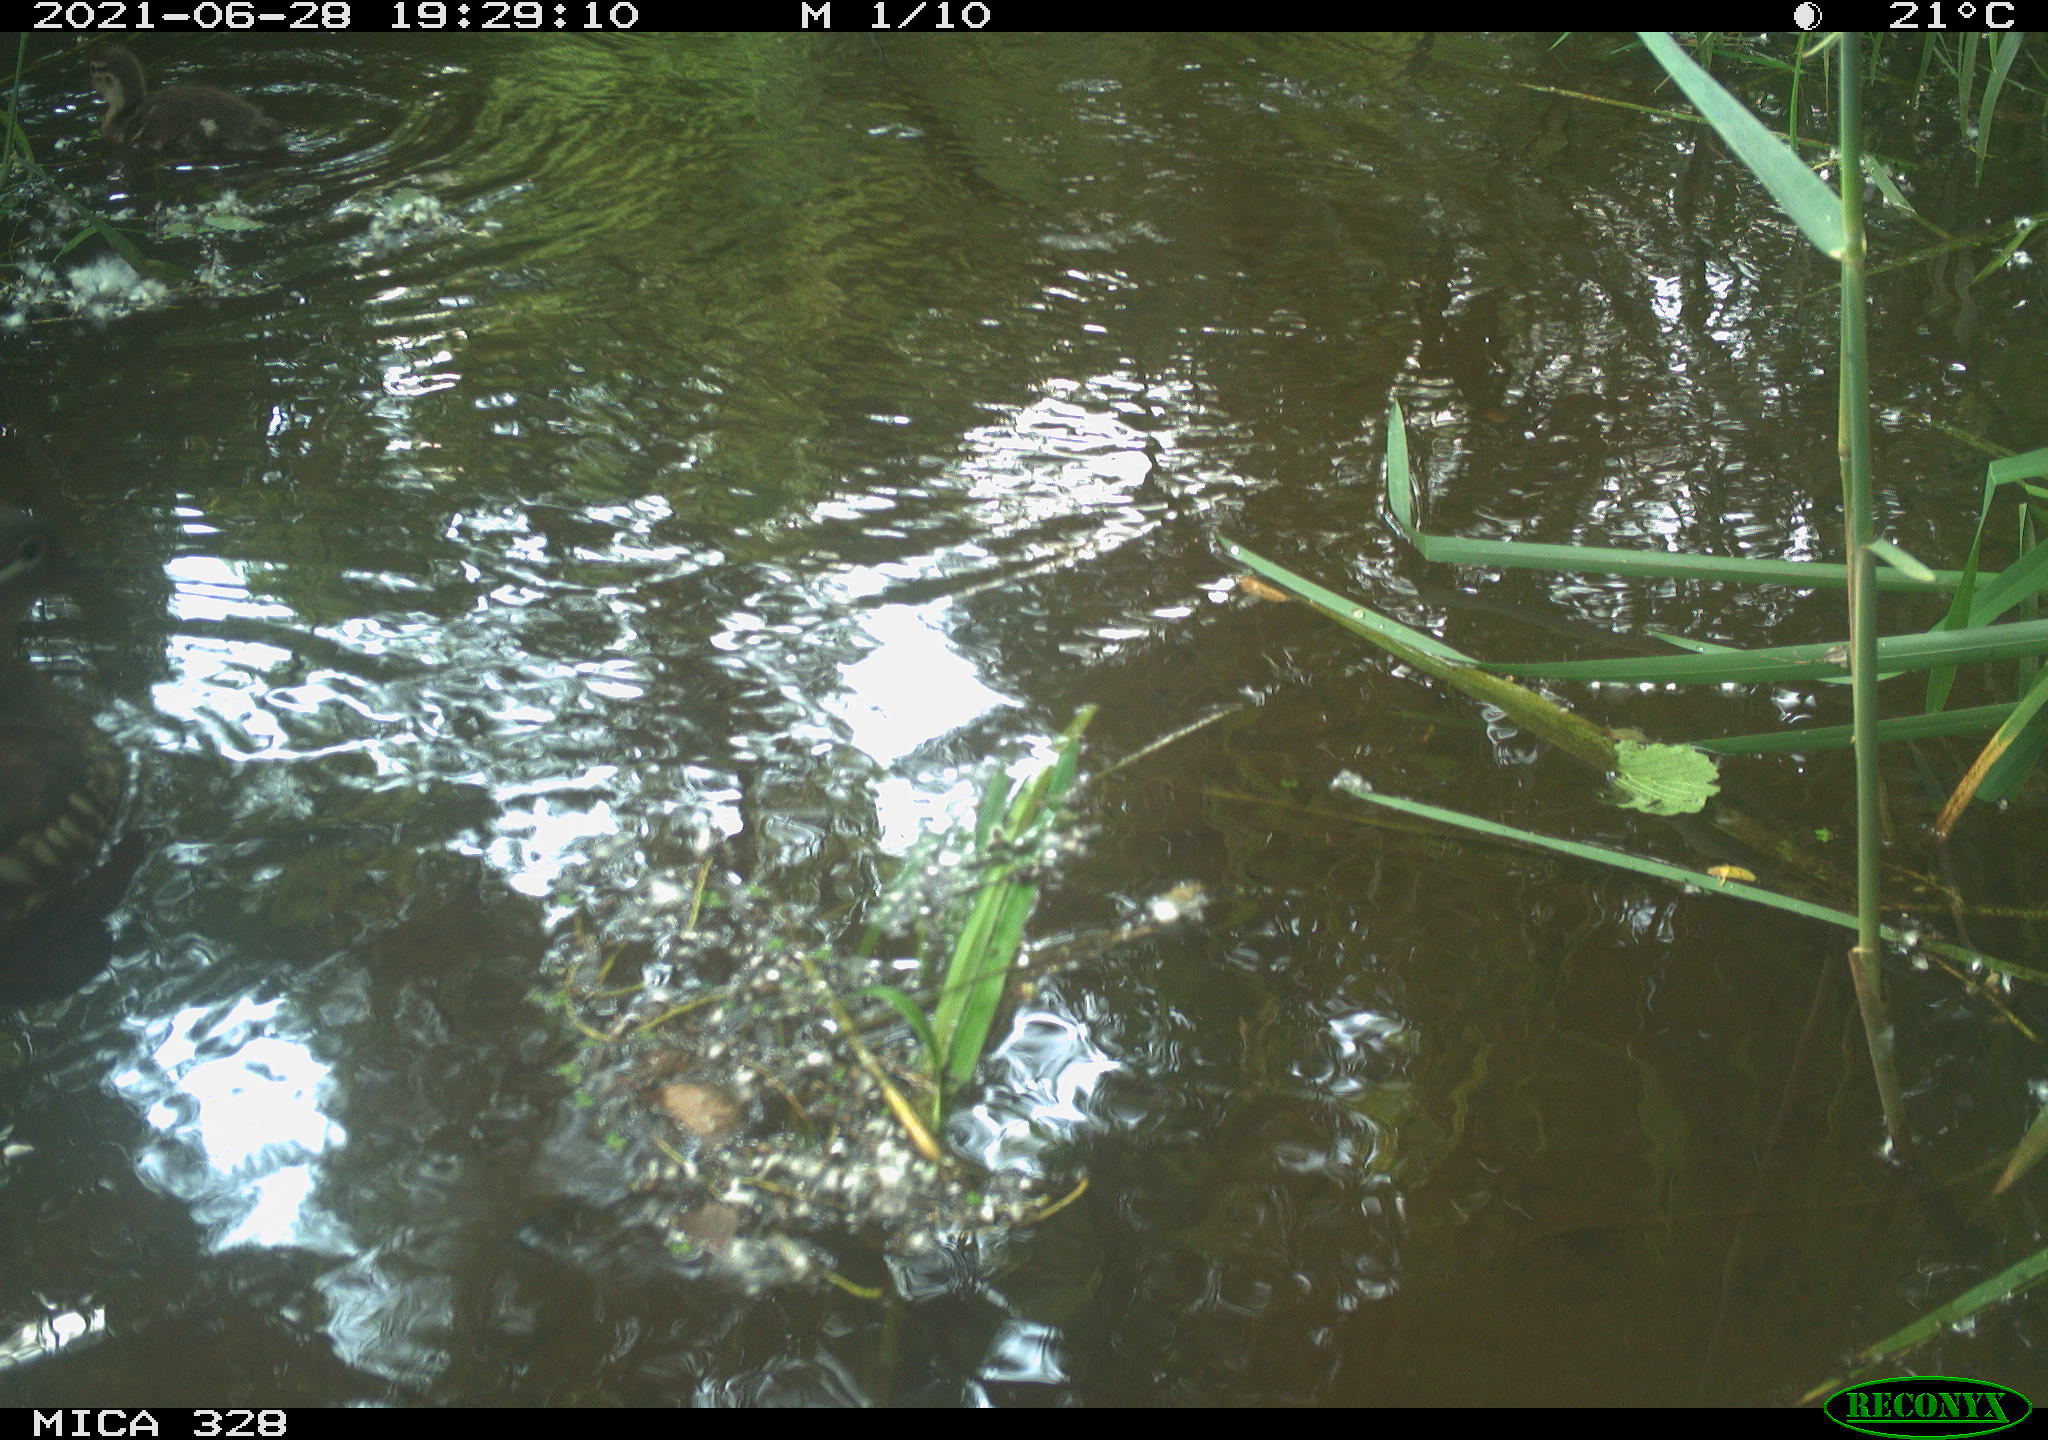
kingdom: Animalia
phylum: Chordata
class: Aves
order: Anseriformes
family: Anatidae
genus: Aix
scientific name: Aix galericulata
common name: Mandarin duck
